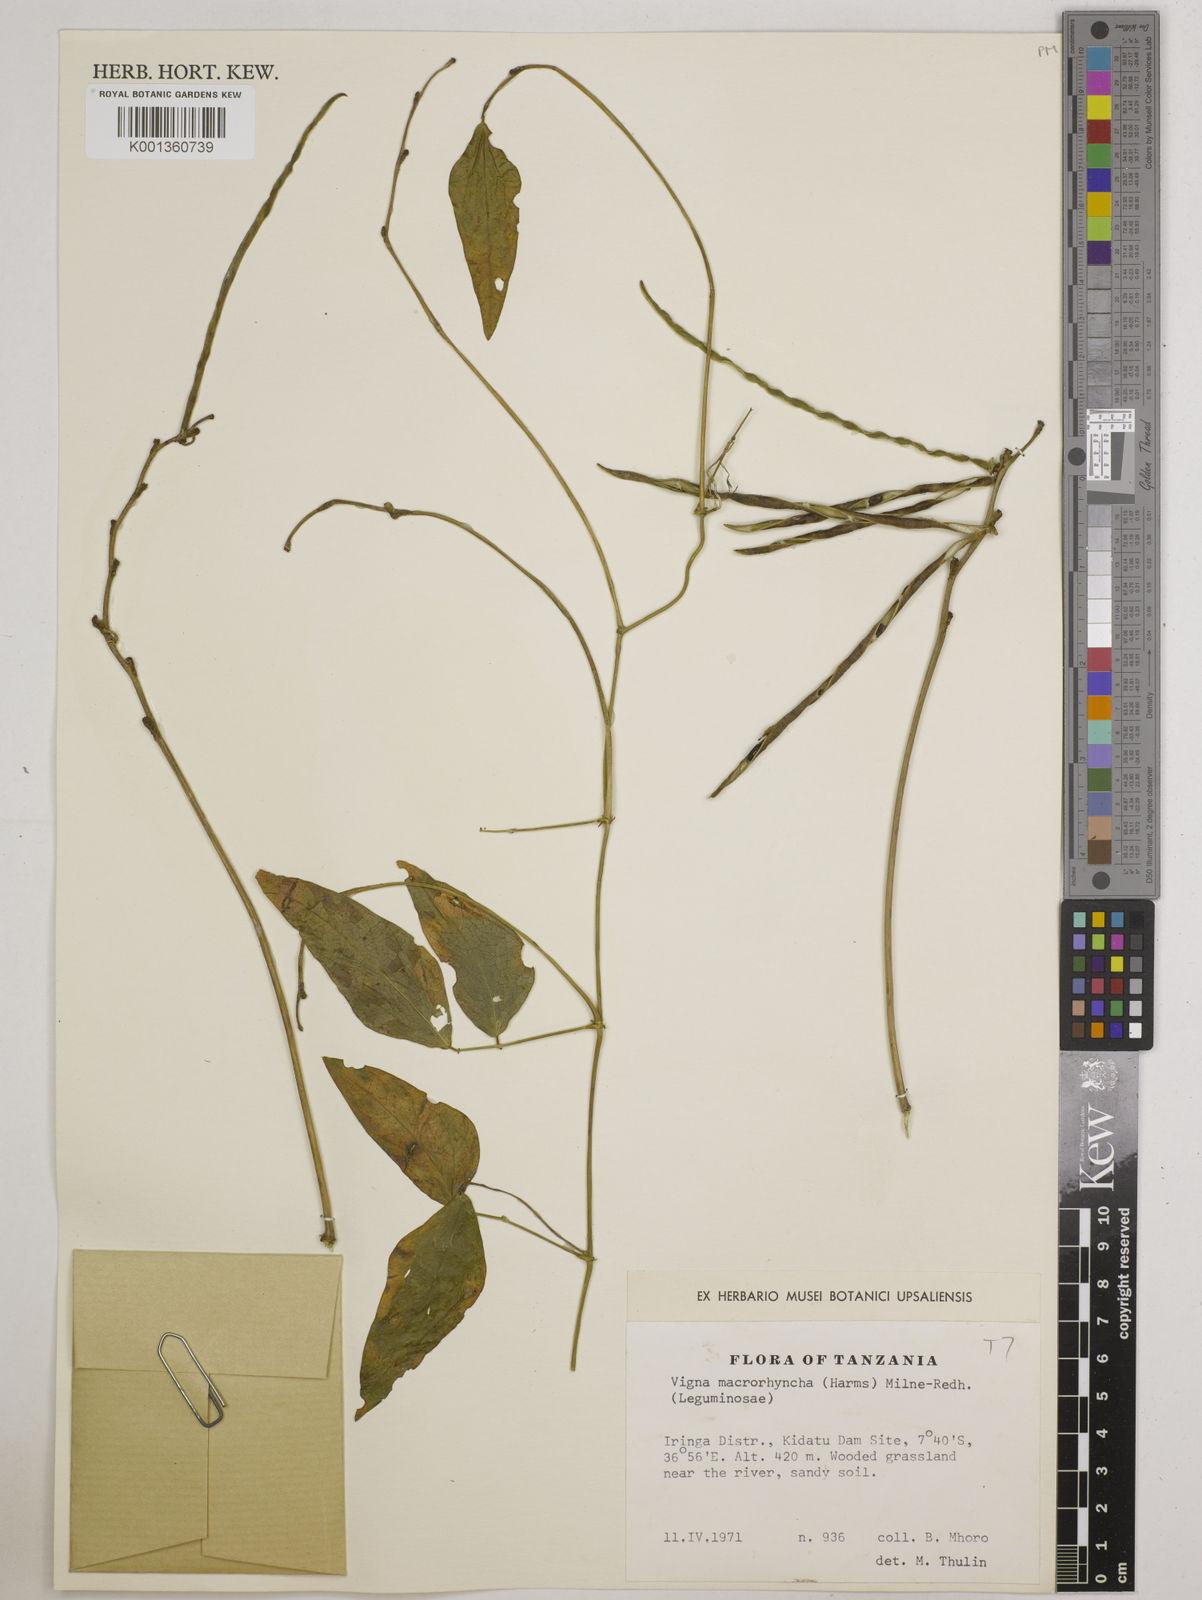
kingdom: Plantae
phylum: Tracheophyta
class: Magnoliopsida
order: Fabales
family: Fabaceae
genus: Wajira
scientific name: Wajira grahamiana
